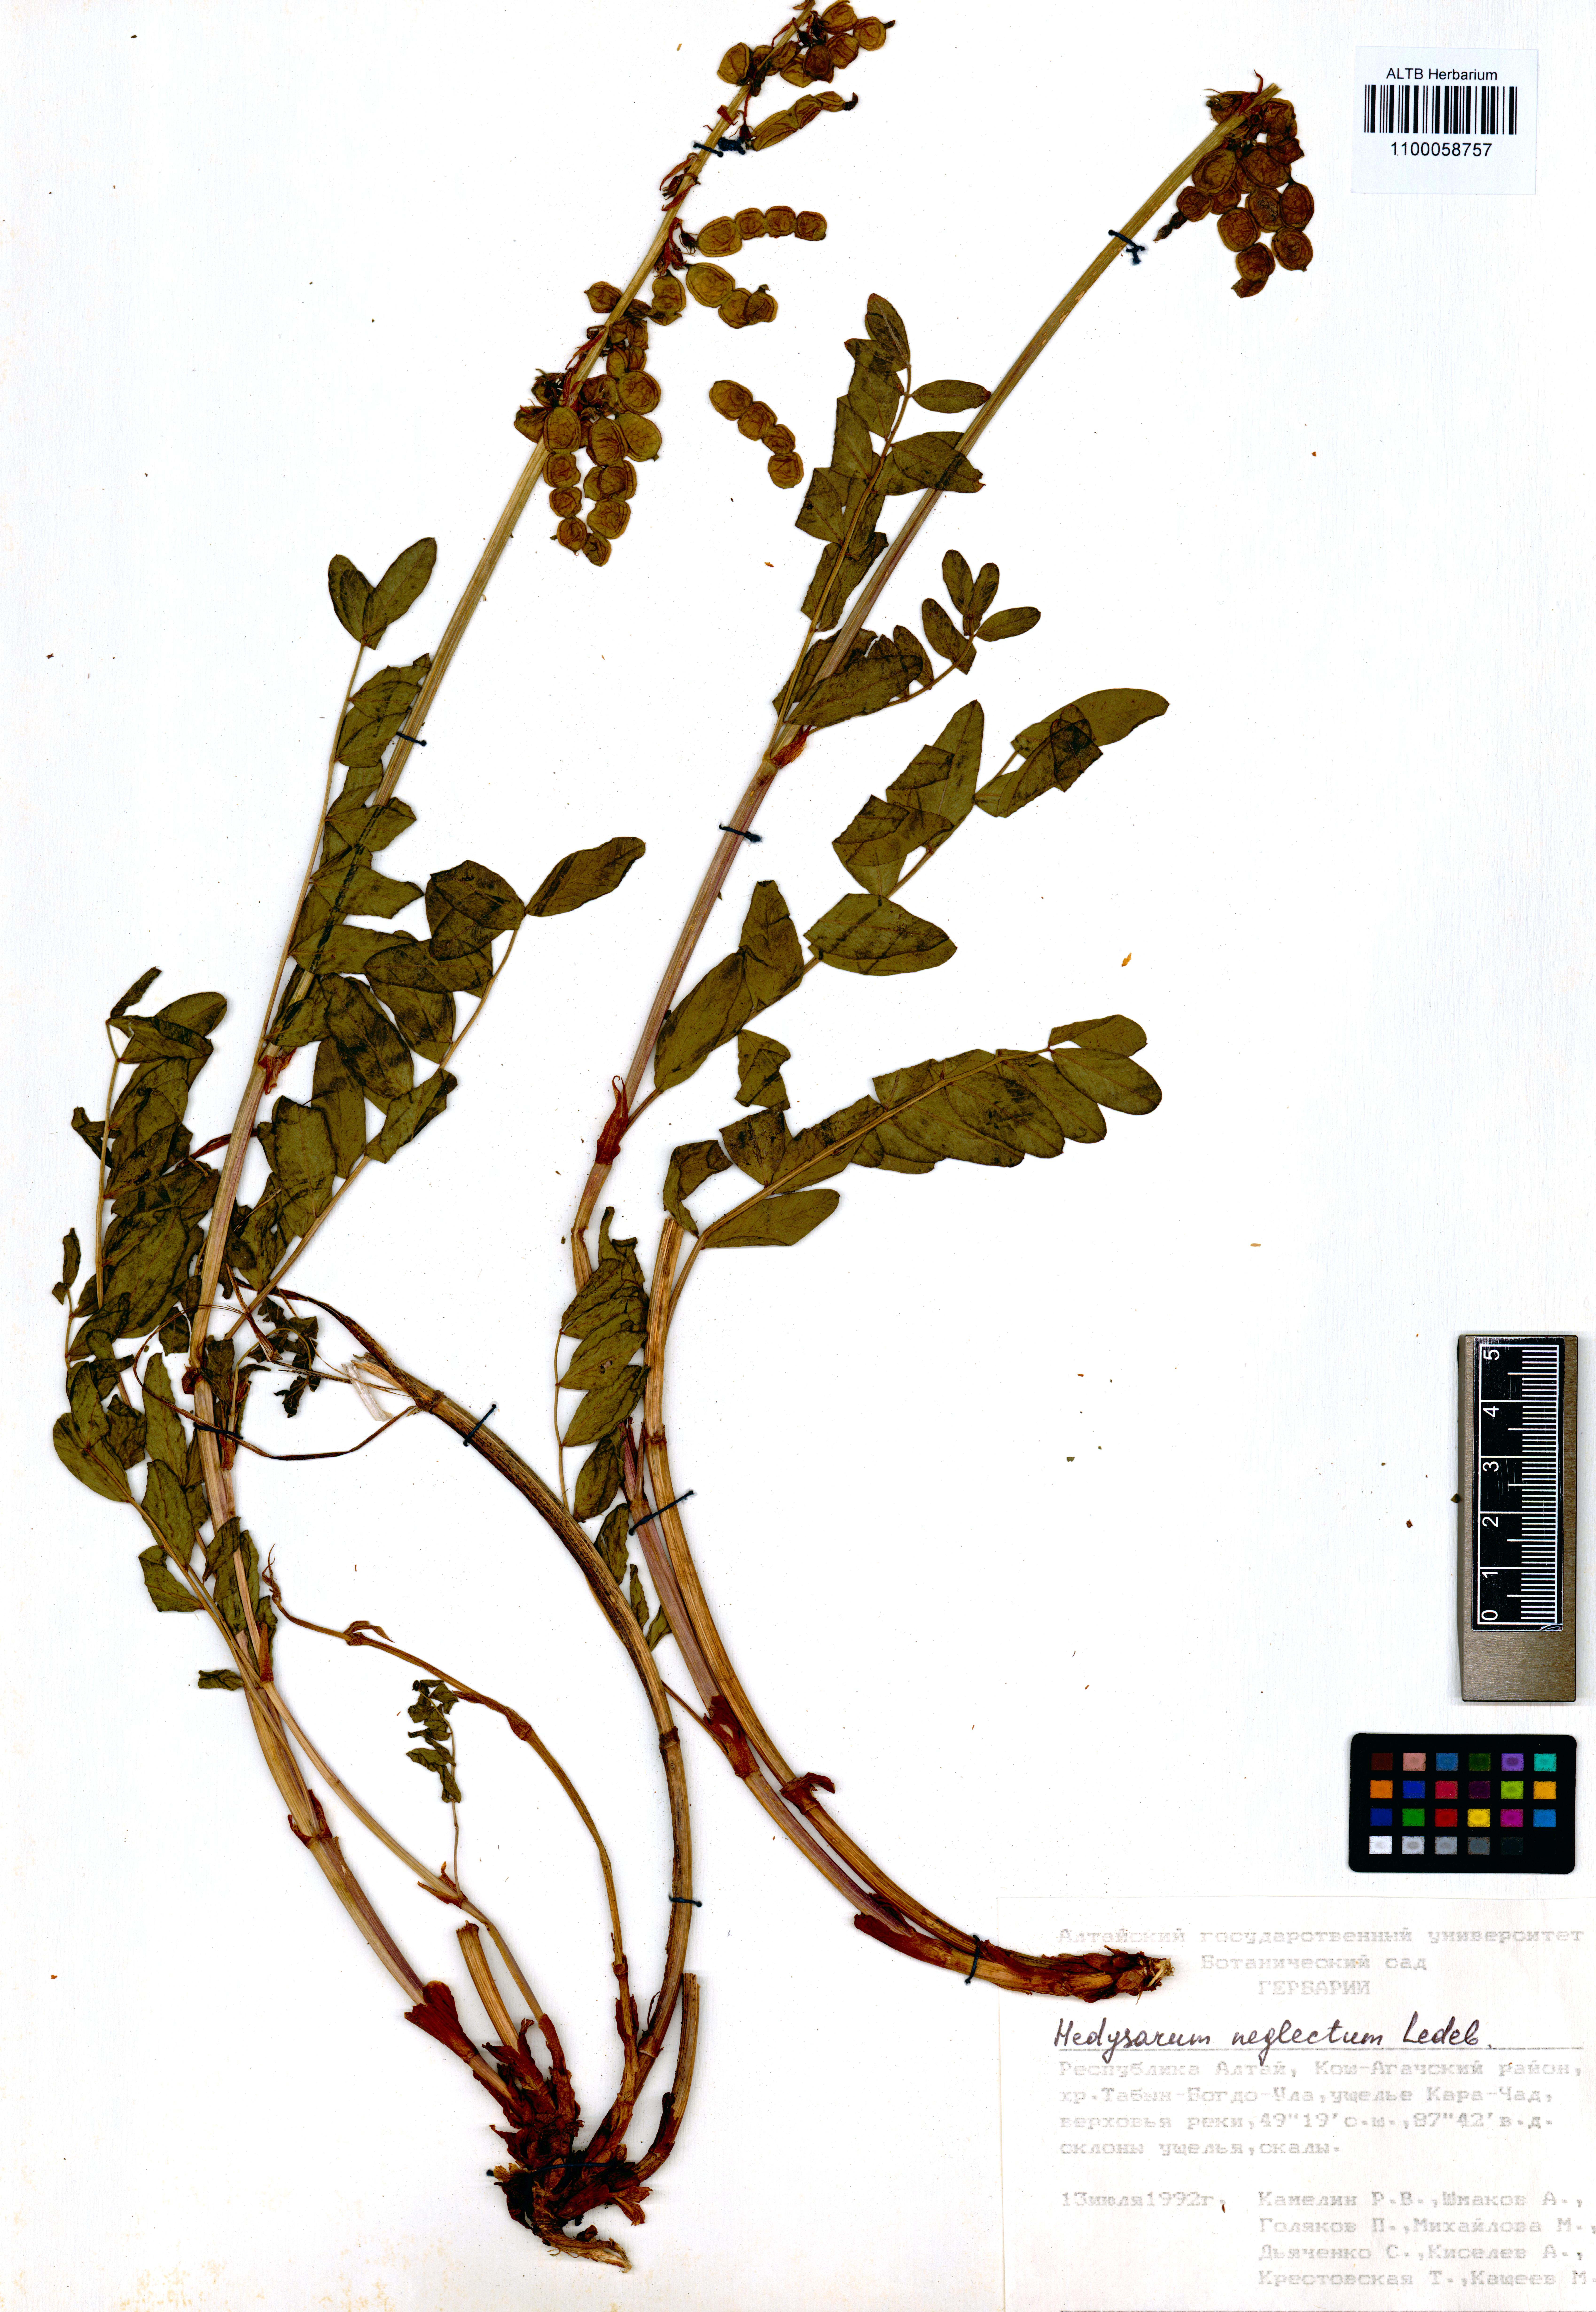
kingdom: Plantae
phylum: Tracheophyta
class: Magnoliopsida
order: Fabales
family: Fabaceae
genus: Hedysarum
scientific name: Hedysarum neglectum
